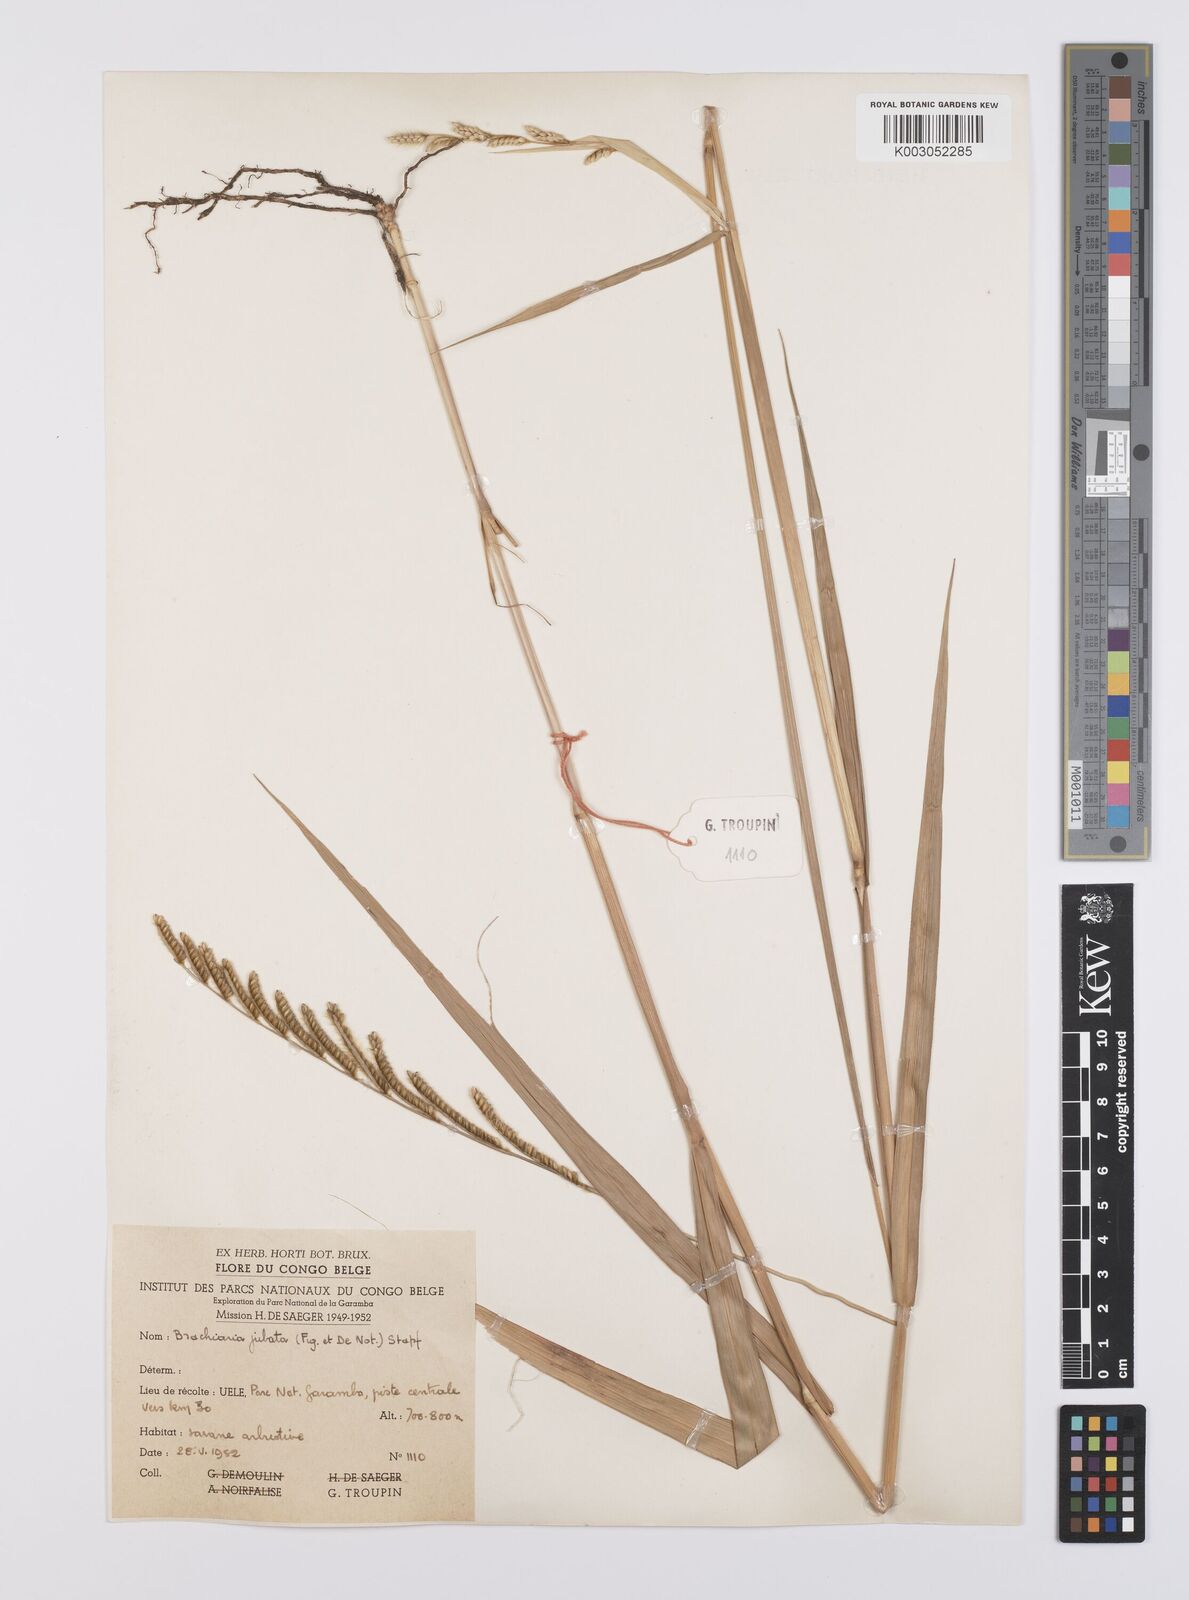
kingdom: Plantae
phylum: Tracheophyta
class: Liliopsida
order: Poales
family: Poaceae
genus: Urochloa
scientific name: Urochloa jubata
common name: Buffalograss
